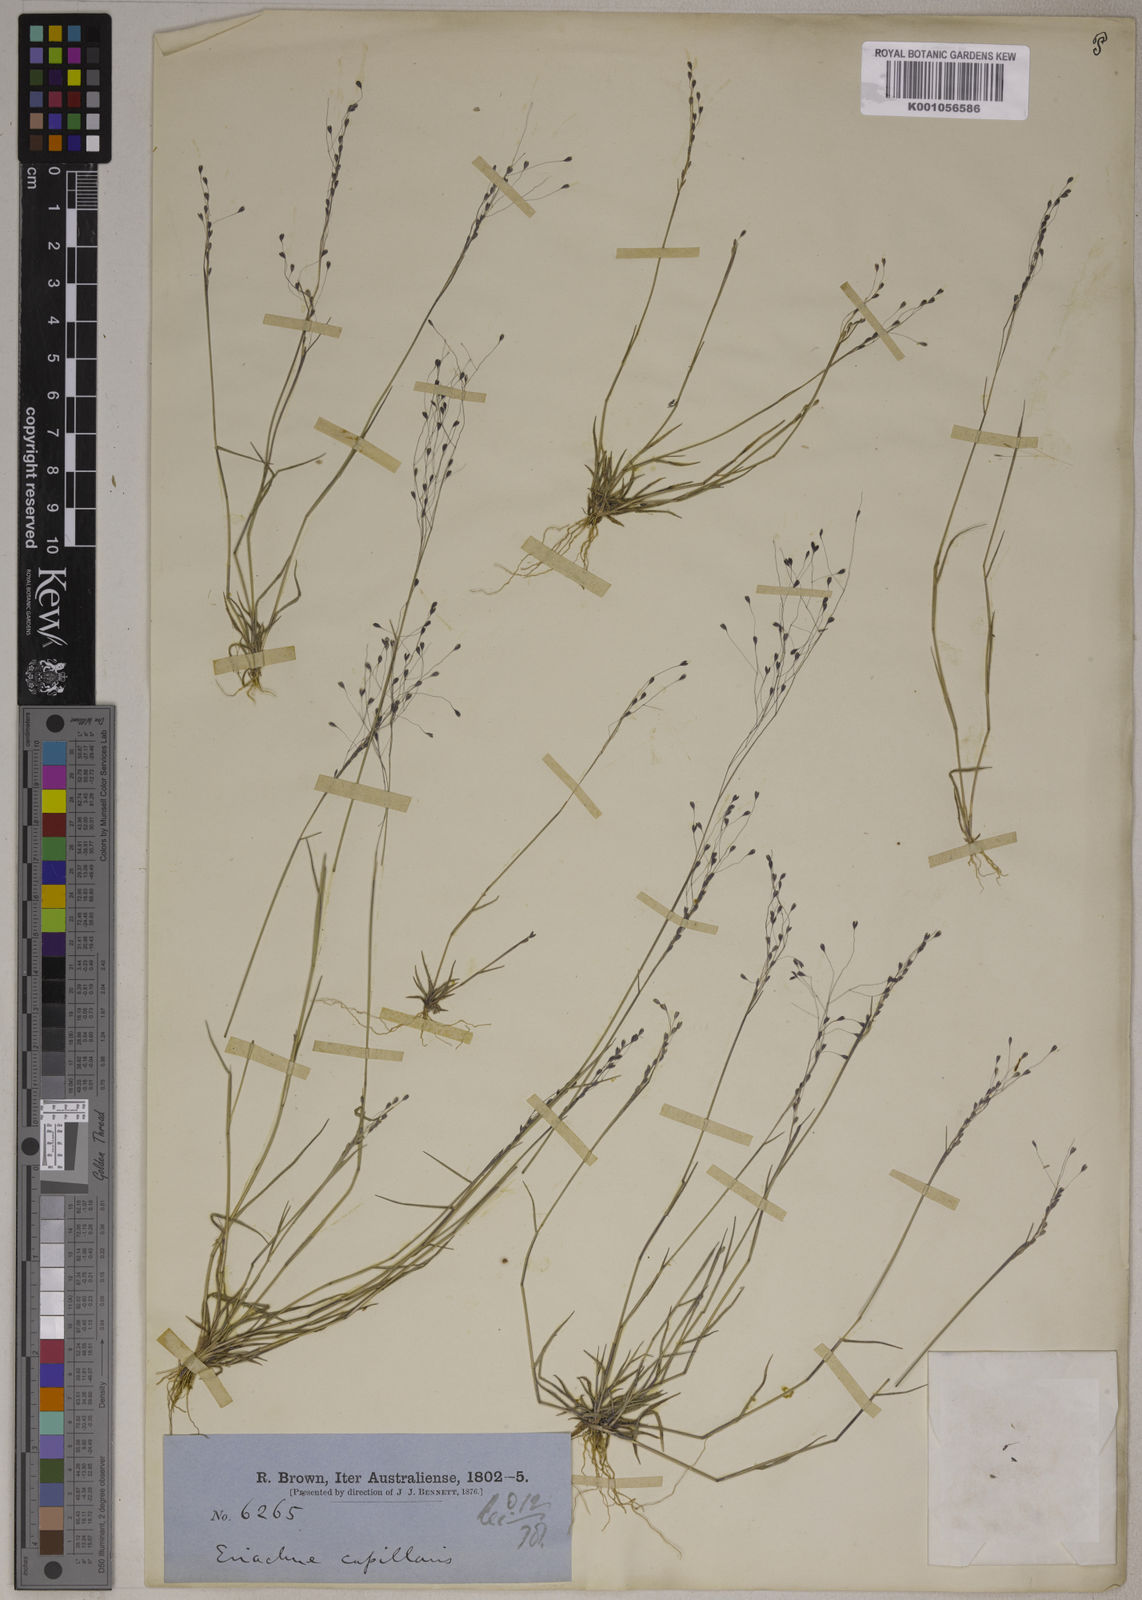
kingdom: Plantae
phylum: Tracheophyta
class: Liliopsida
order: Poales
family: Poaceae
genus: Eriachne
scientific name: Eriachne capillaris
